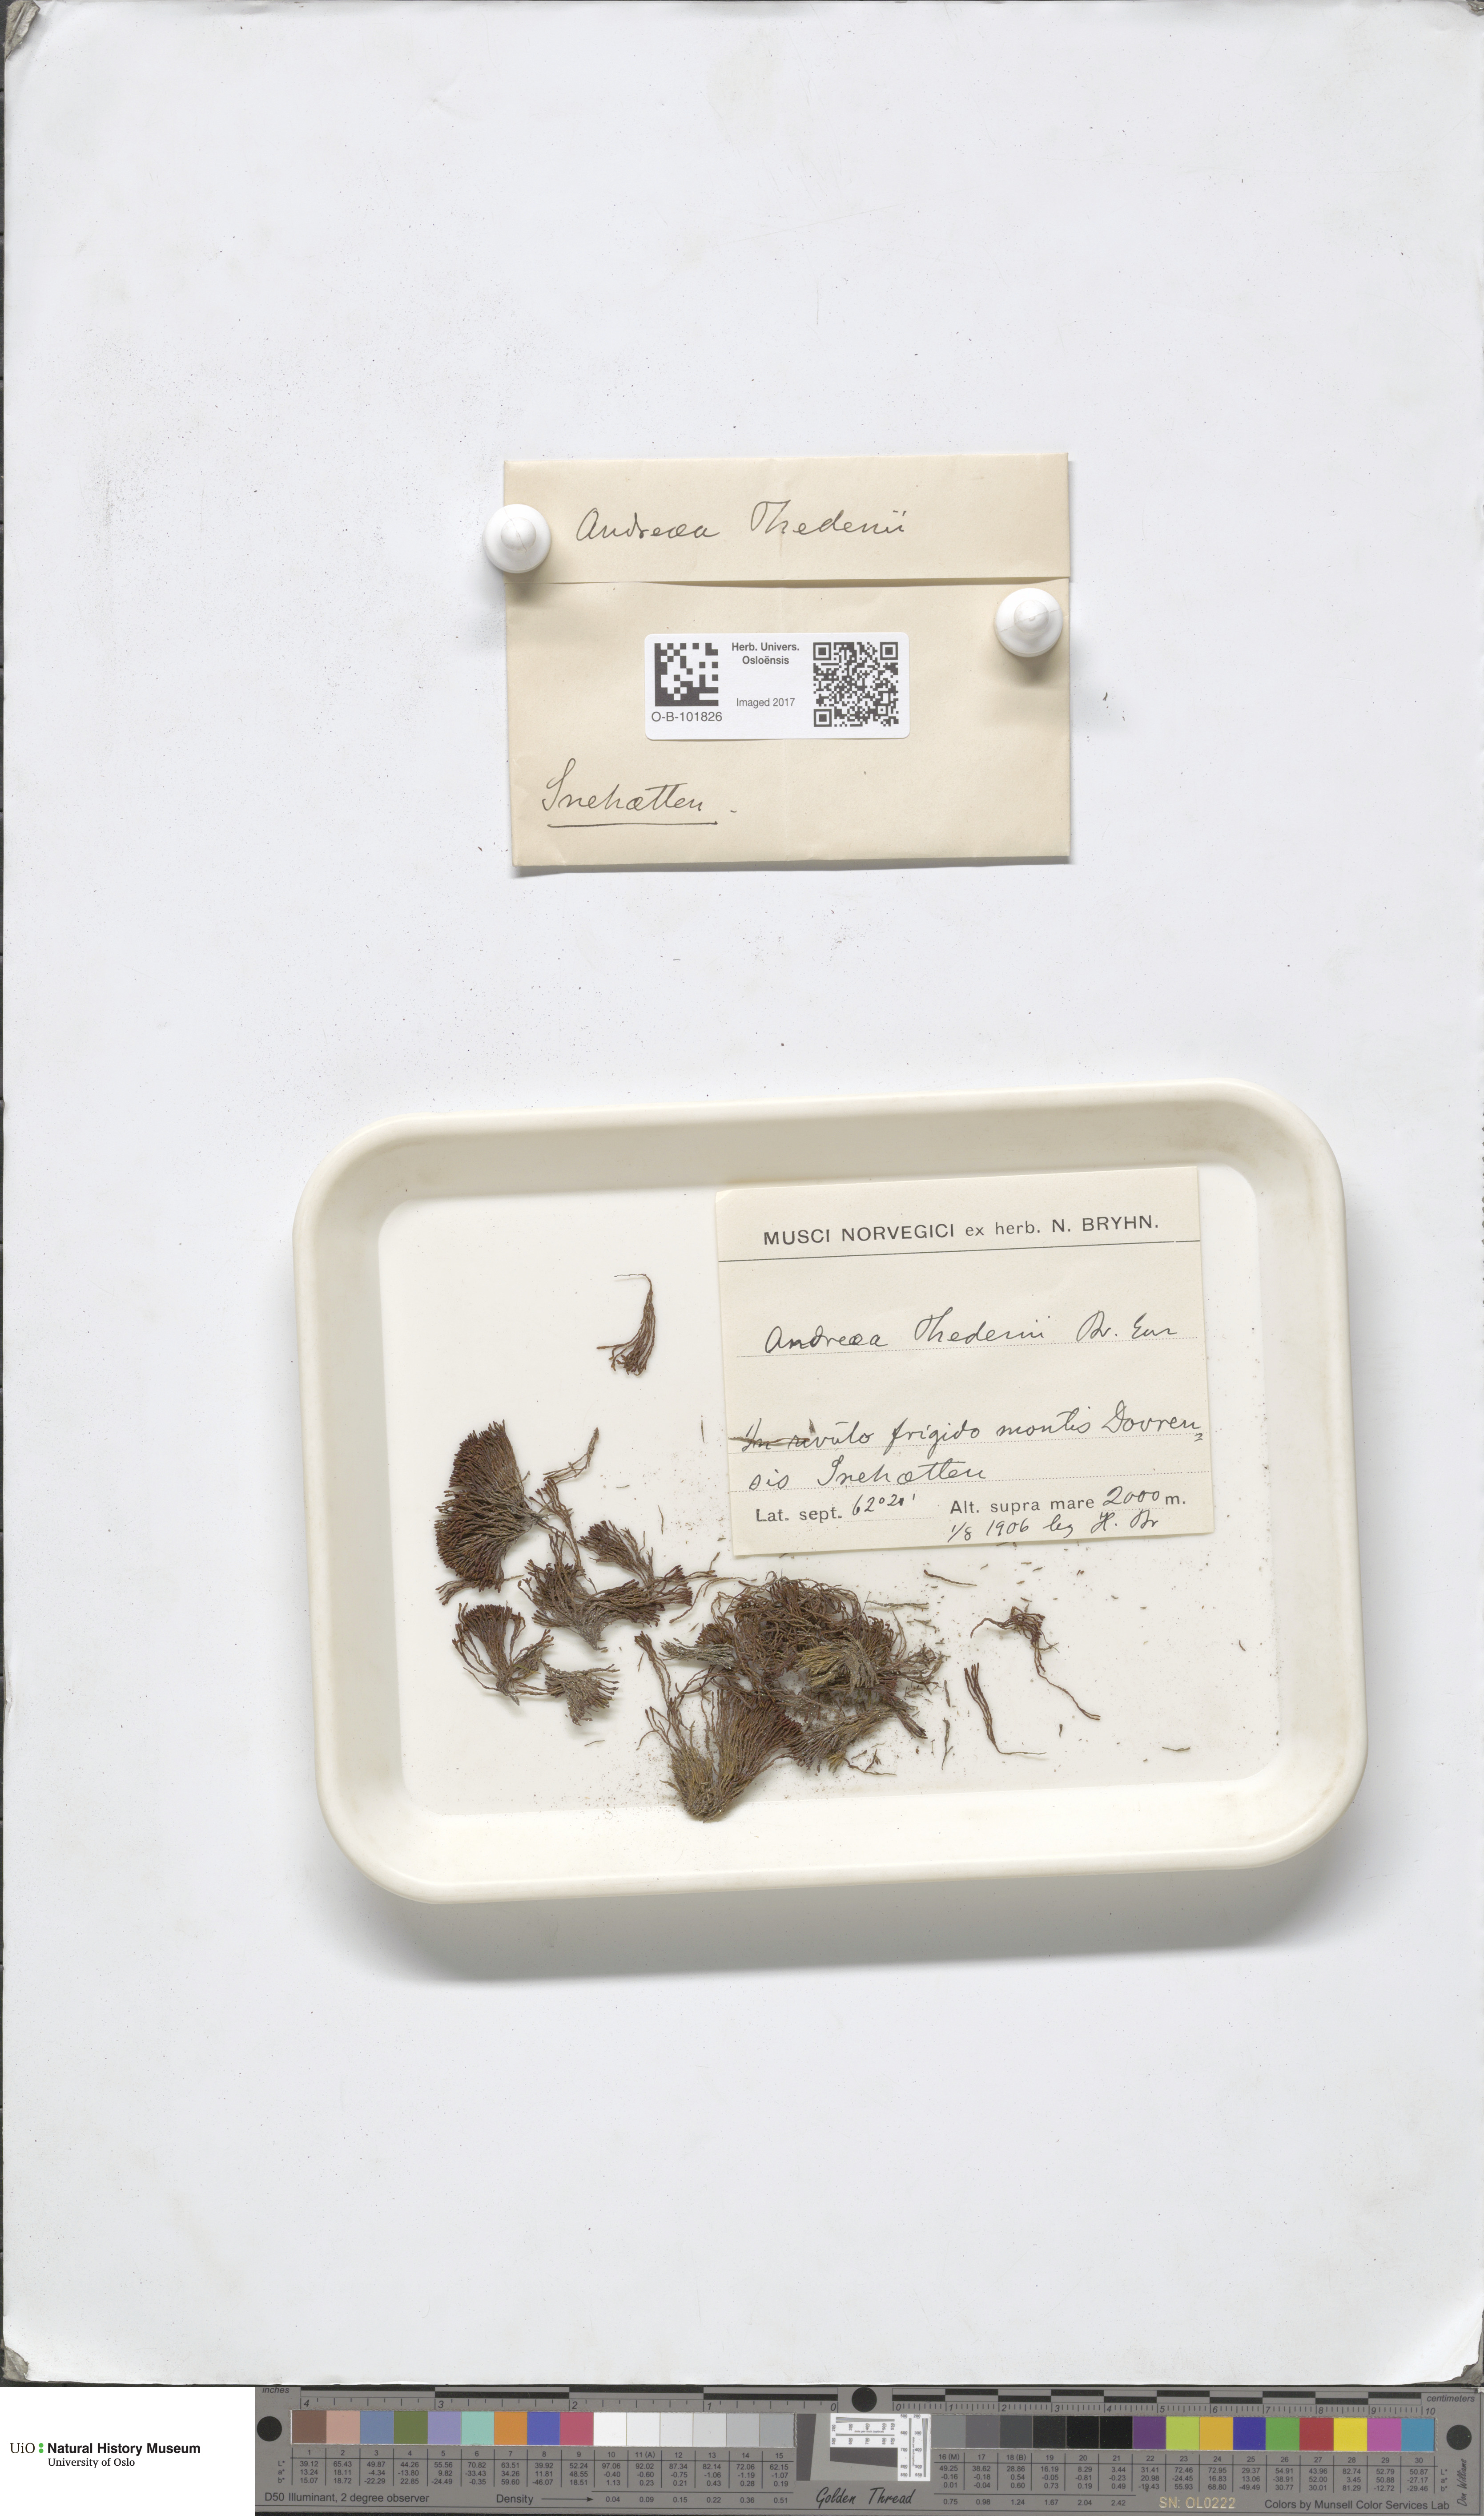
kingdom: Plantae
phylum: Bryophyta
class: Andreaeopsida
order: Andreaeales
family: Andreaeaceae
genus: Andreaea
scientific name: Andreaea hookeri
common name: Alpine rock-moss
